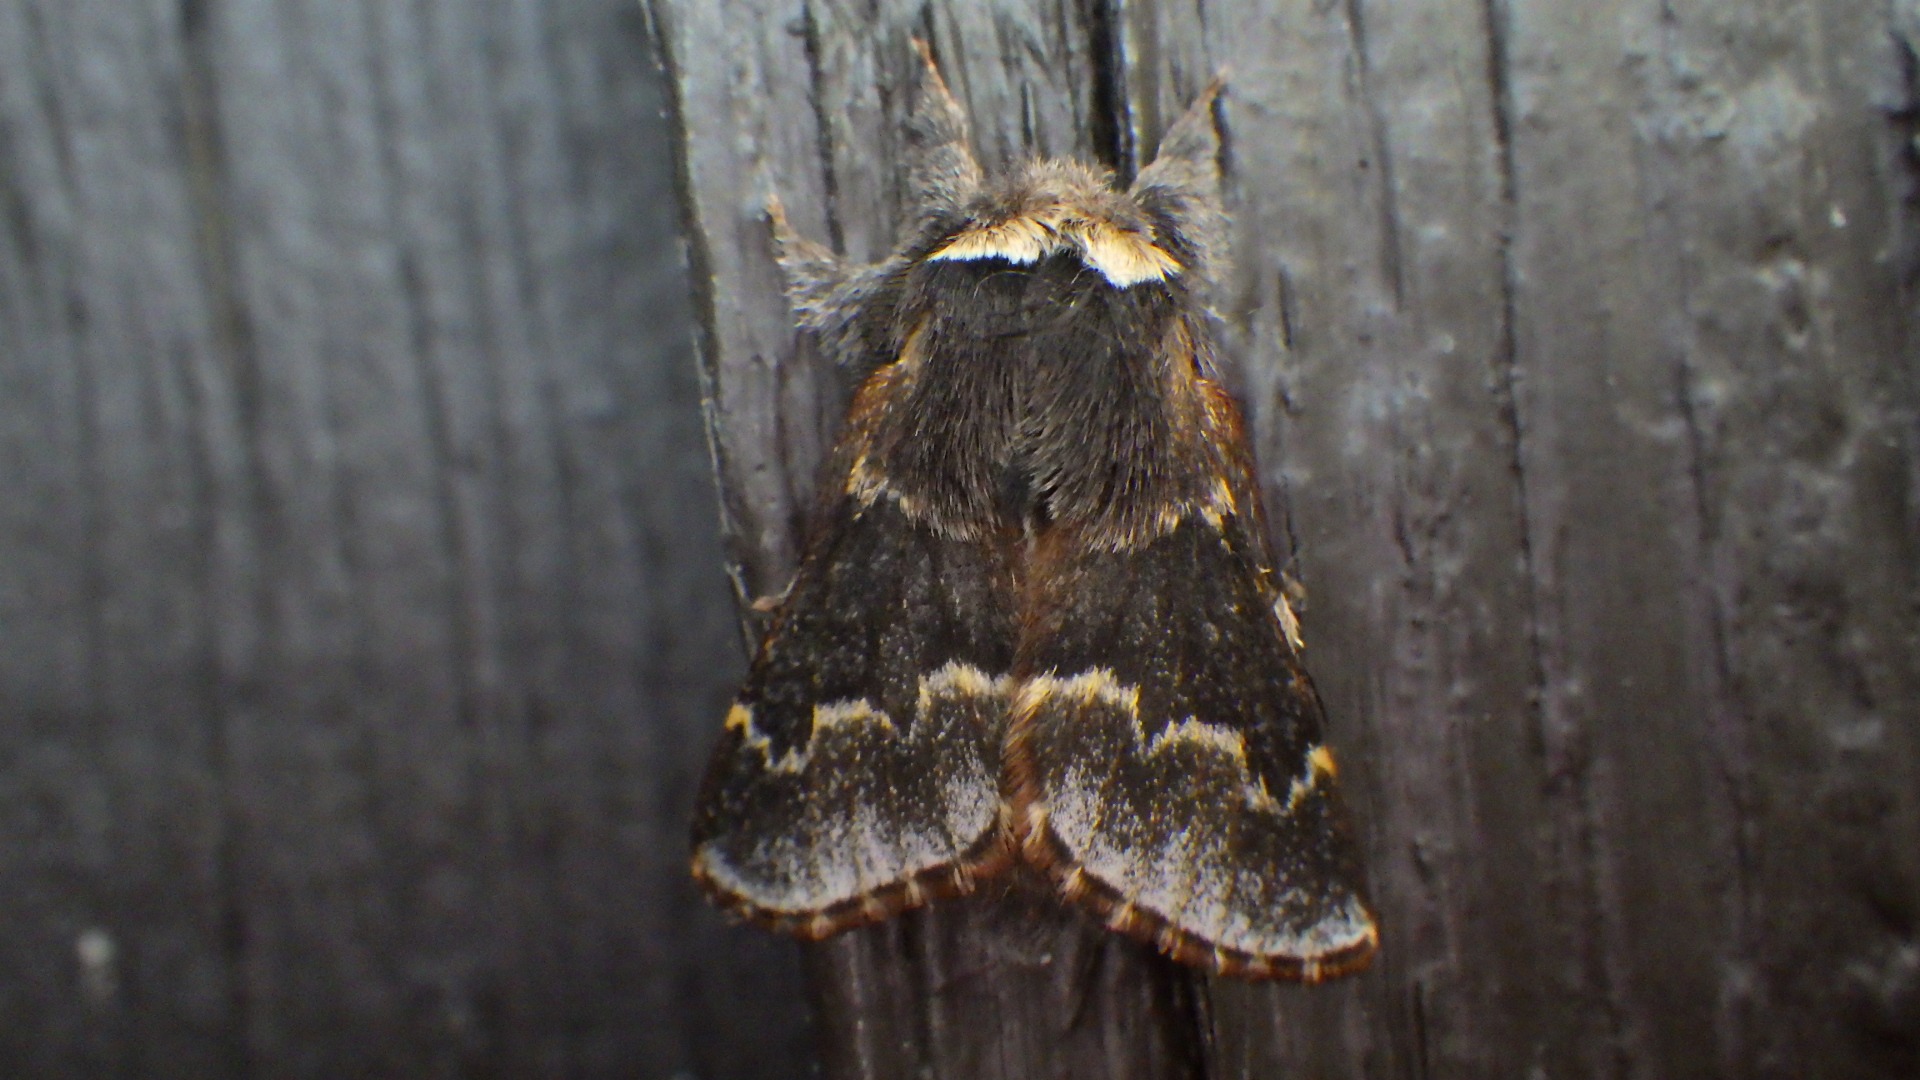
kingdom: Animalia
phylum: Arthropoda
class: Insecta
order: Lepidoptera
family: Lasiocampidae
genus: Poecilocampa
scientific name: Poecilocampa populi
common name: Poppelspinder
